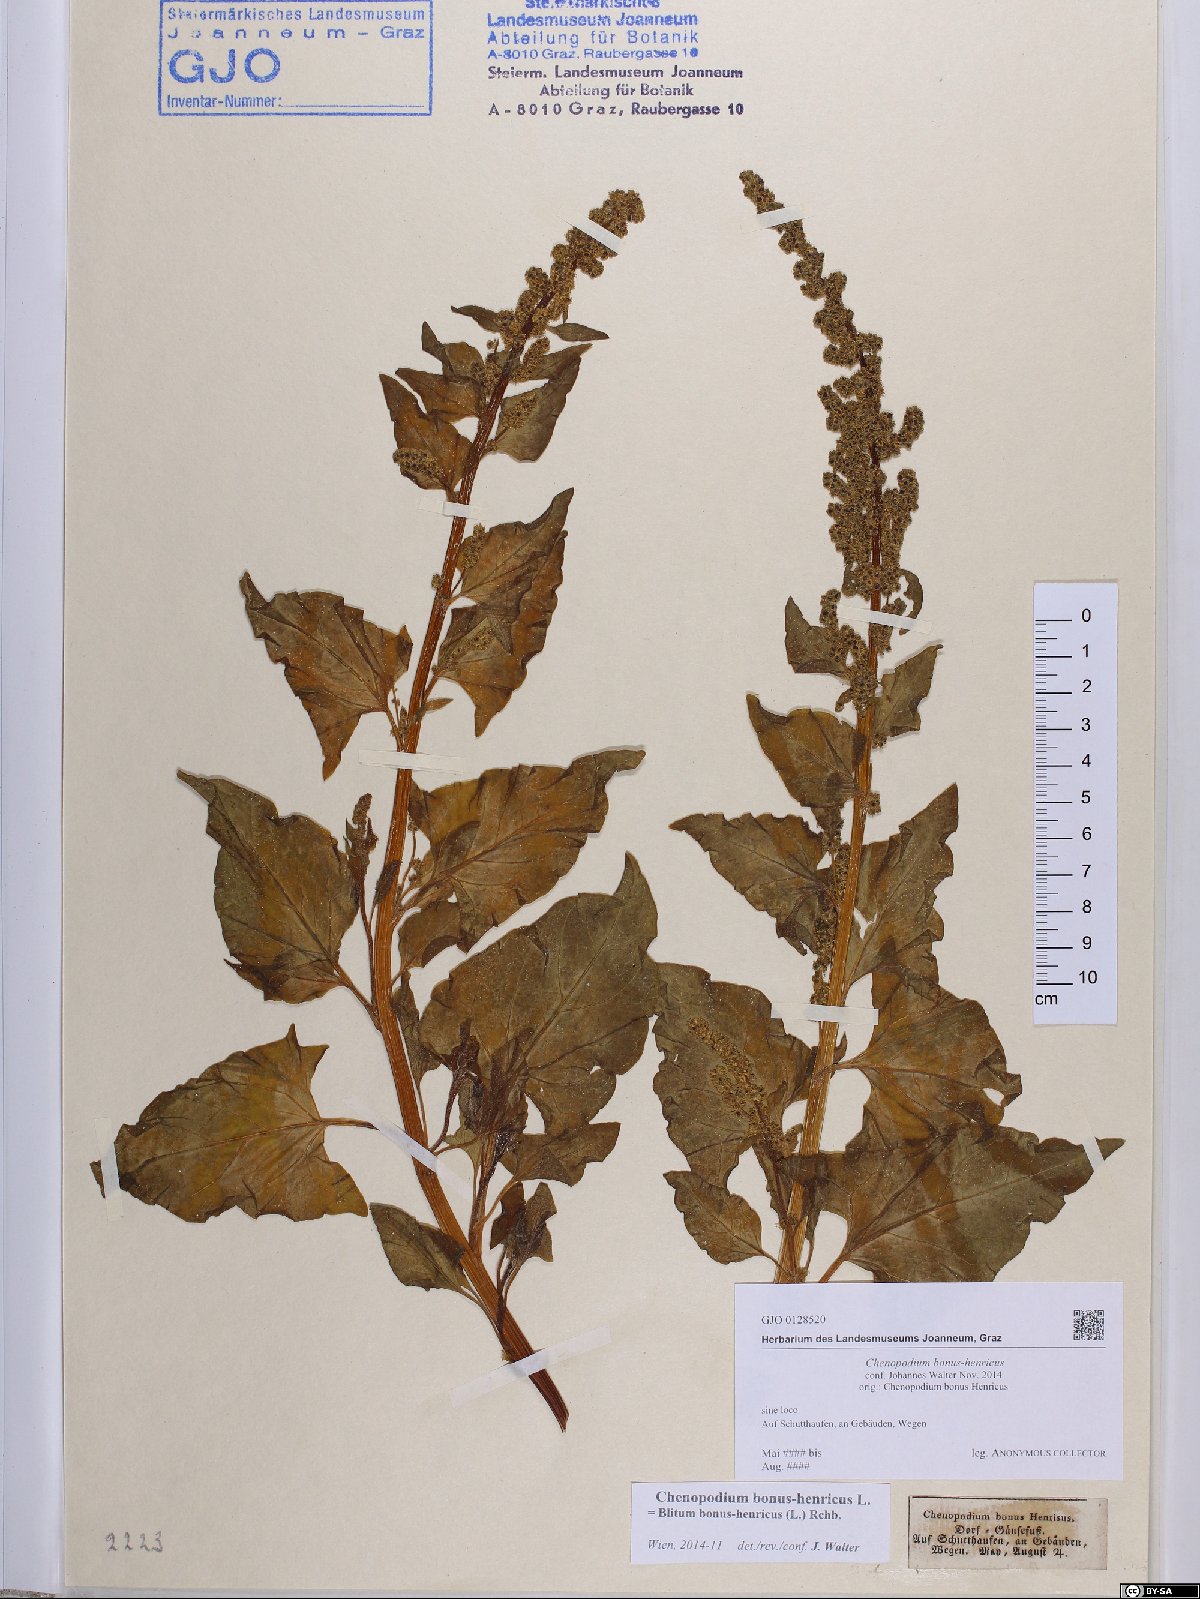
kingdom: Plantae
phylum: Tracheophyta
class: Magnoliopsida
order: Caryophyllales
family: Amaranthaceae
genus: Blitum
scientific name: Blitum bonus-henricus
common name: Good king henry
